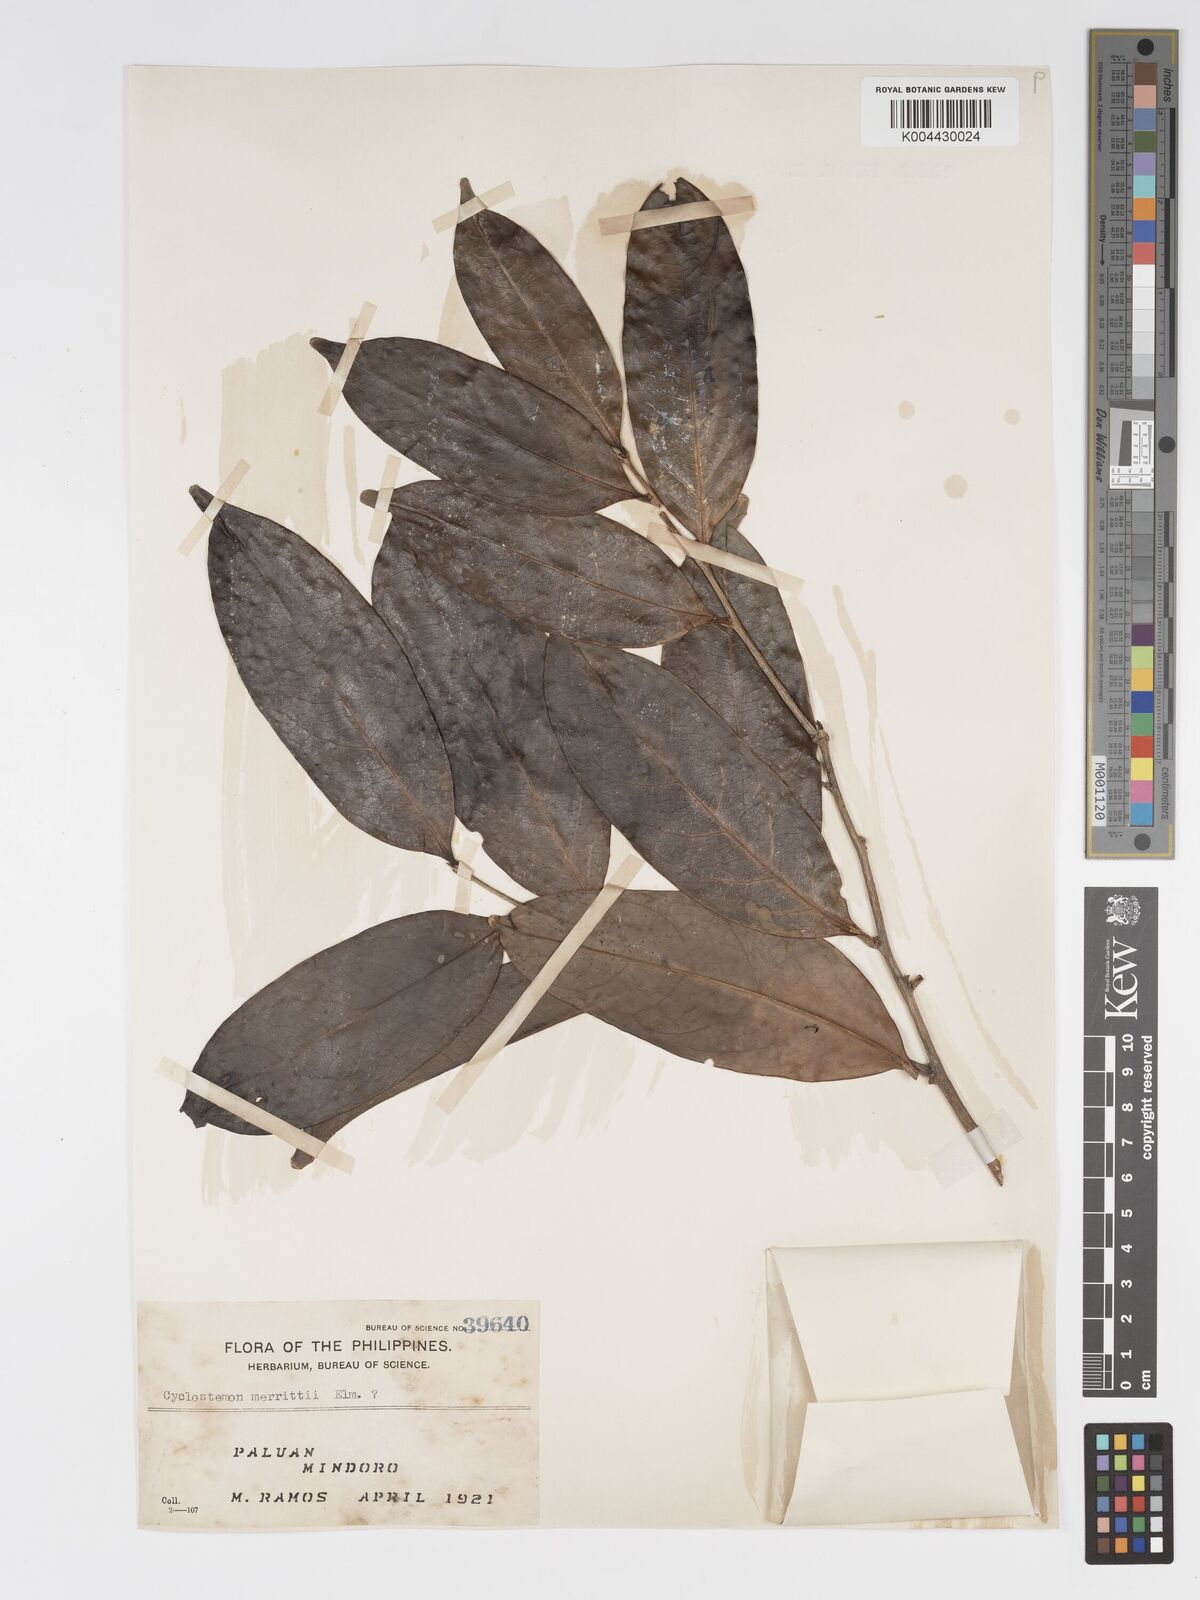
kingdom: Plantae
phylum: Tracheophyta
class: Magnoliopsida
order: Malpighiales
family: Putranjivaceae
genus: Drypetes
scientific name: Drypetes grandifolia
